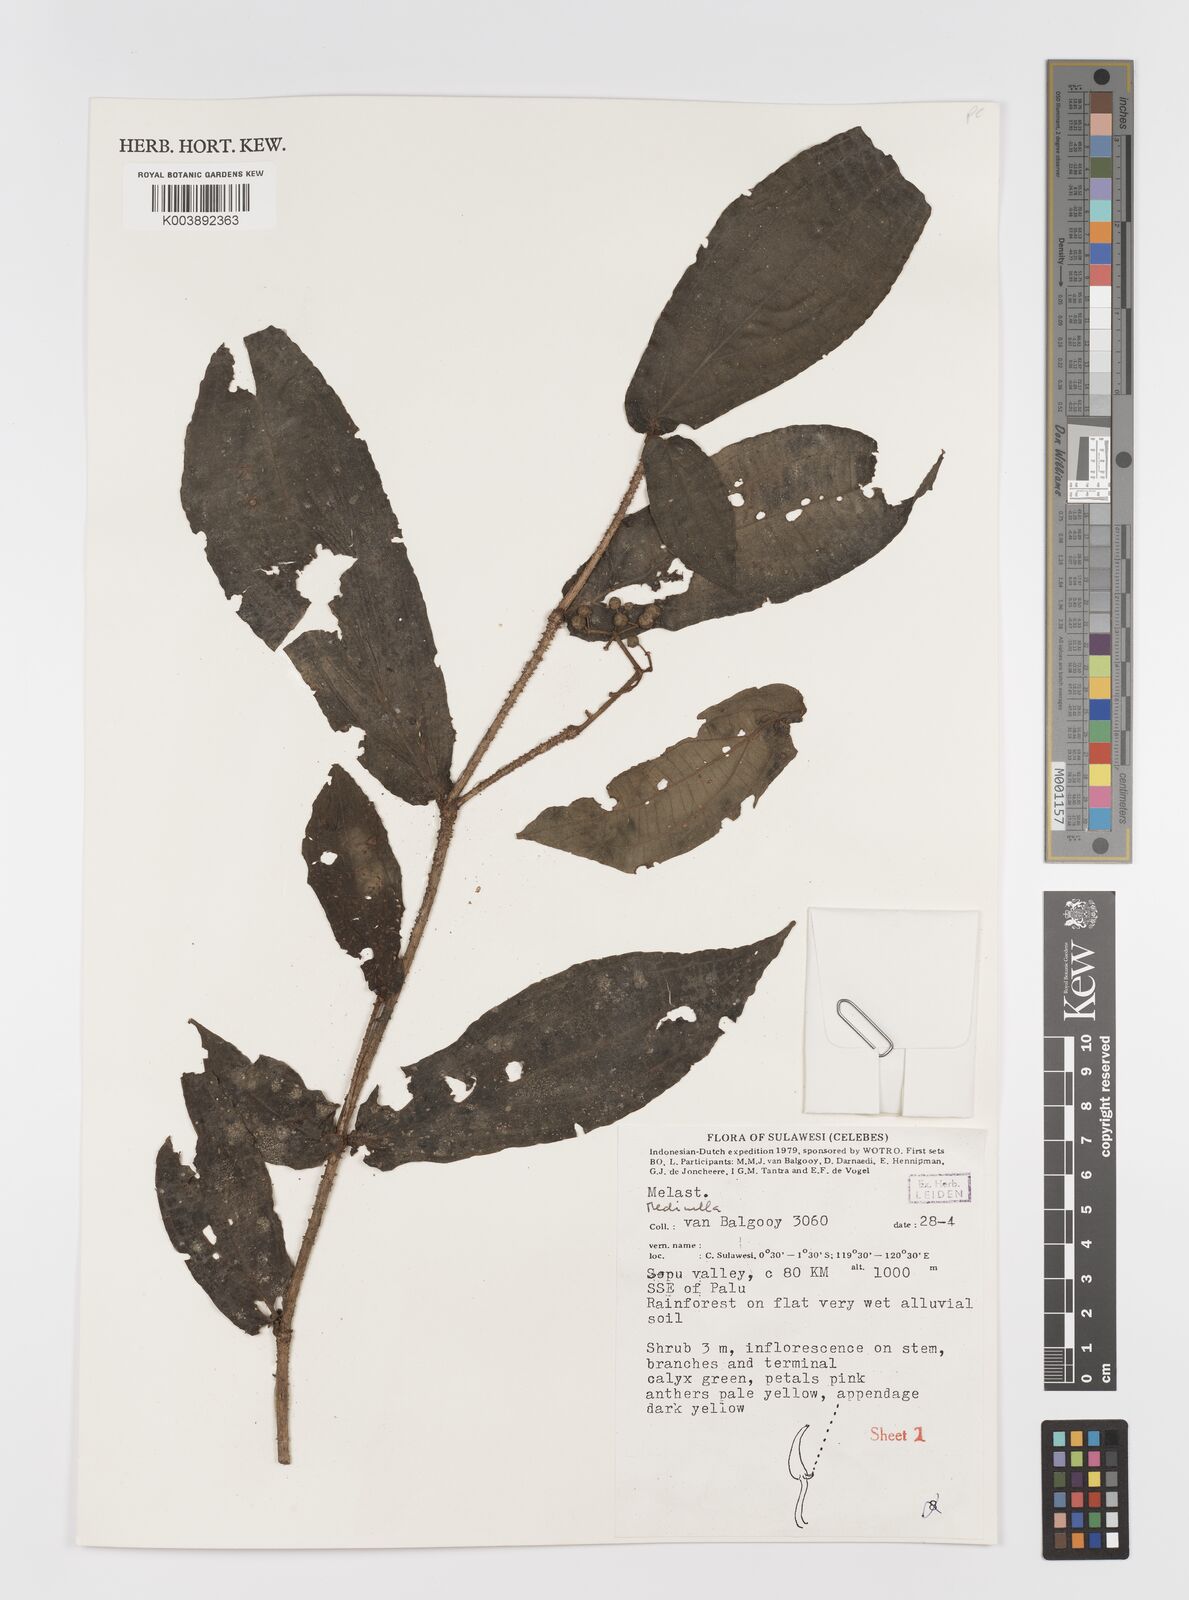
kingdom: Plantae
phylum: Tracheophyta
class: Magnoliopsida
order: Myrtales
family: Melastomataceae
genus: Medinilla
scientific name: Medinilla
